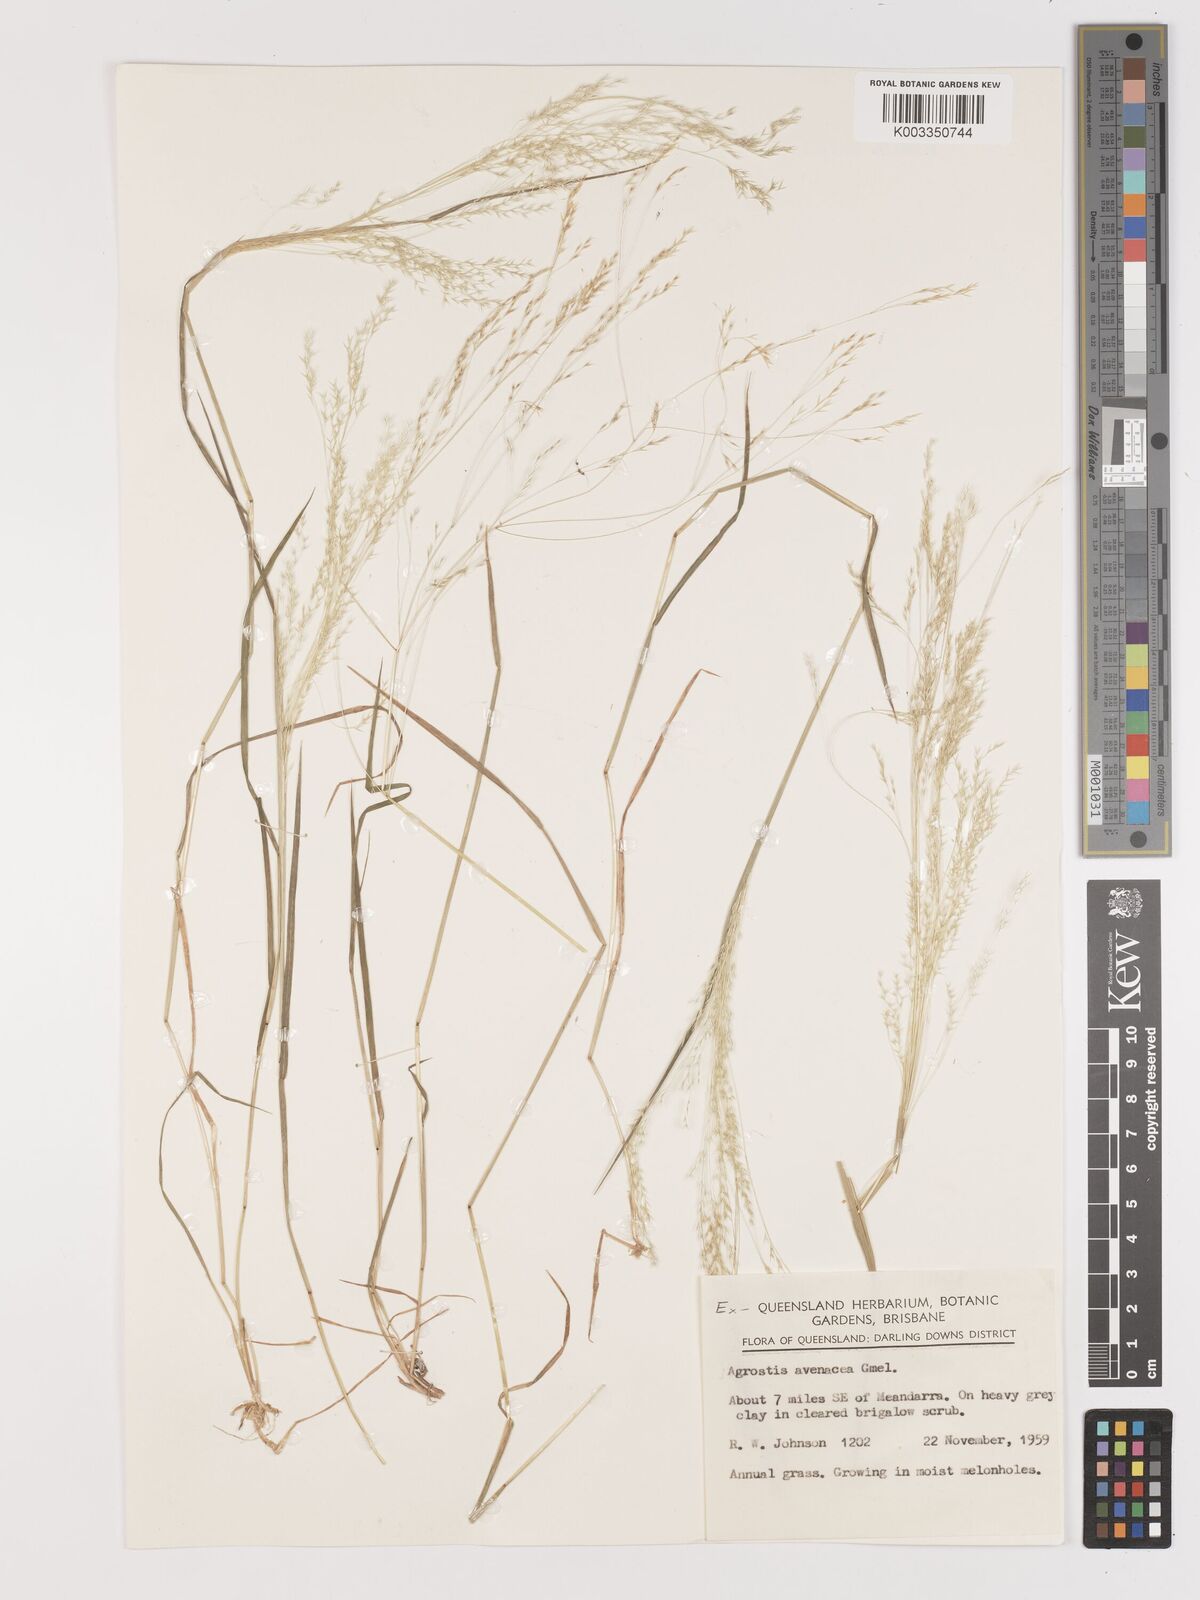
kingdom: Plantae
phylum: Tracheophyta
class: Liliopsida
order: Poales
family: Poaceae
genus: Lachnagrostis
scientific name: Lachnagrostis filiformis
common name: Bentgrass
